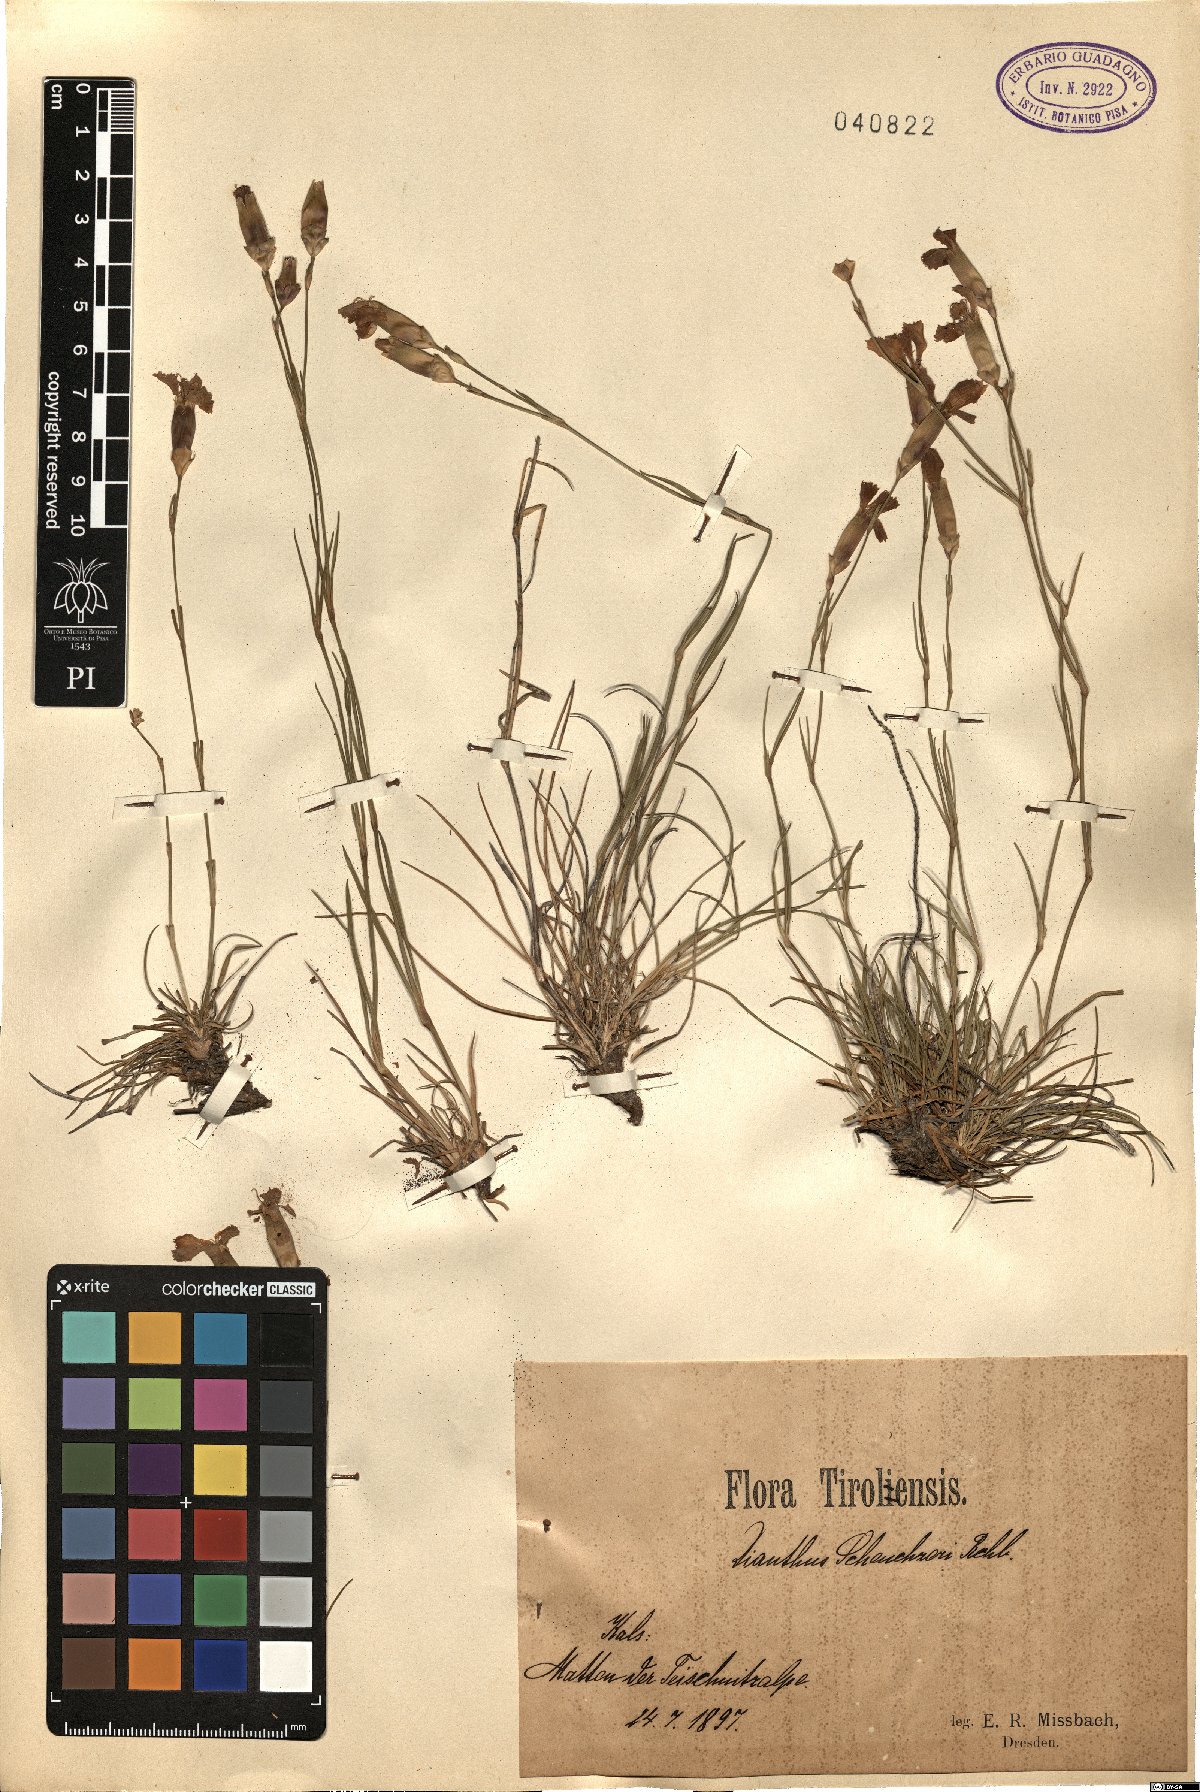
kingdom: Plantae
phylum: Tracheophyta
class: Magnoliopsida
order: Caryophyllales
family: Caryophyllaceae
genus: Dianthus
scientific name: Dianthus virgineus
